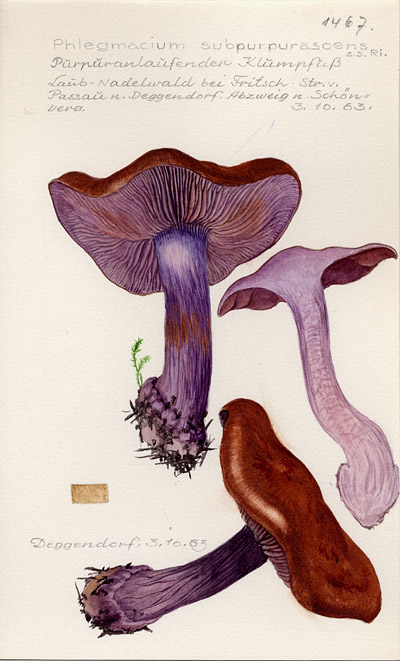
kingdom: Fungi
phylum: Basidiomycota
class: Agaricomycetes
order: Agaricales
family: Cortinariaceae
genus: Thaxterogaster
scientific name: Thaxterogaster subpurpurascens
